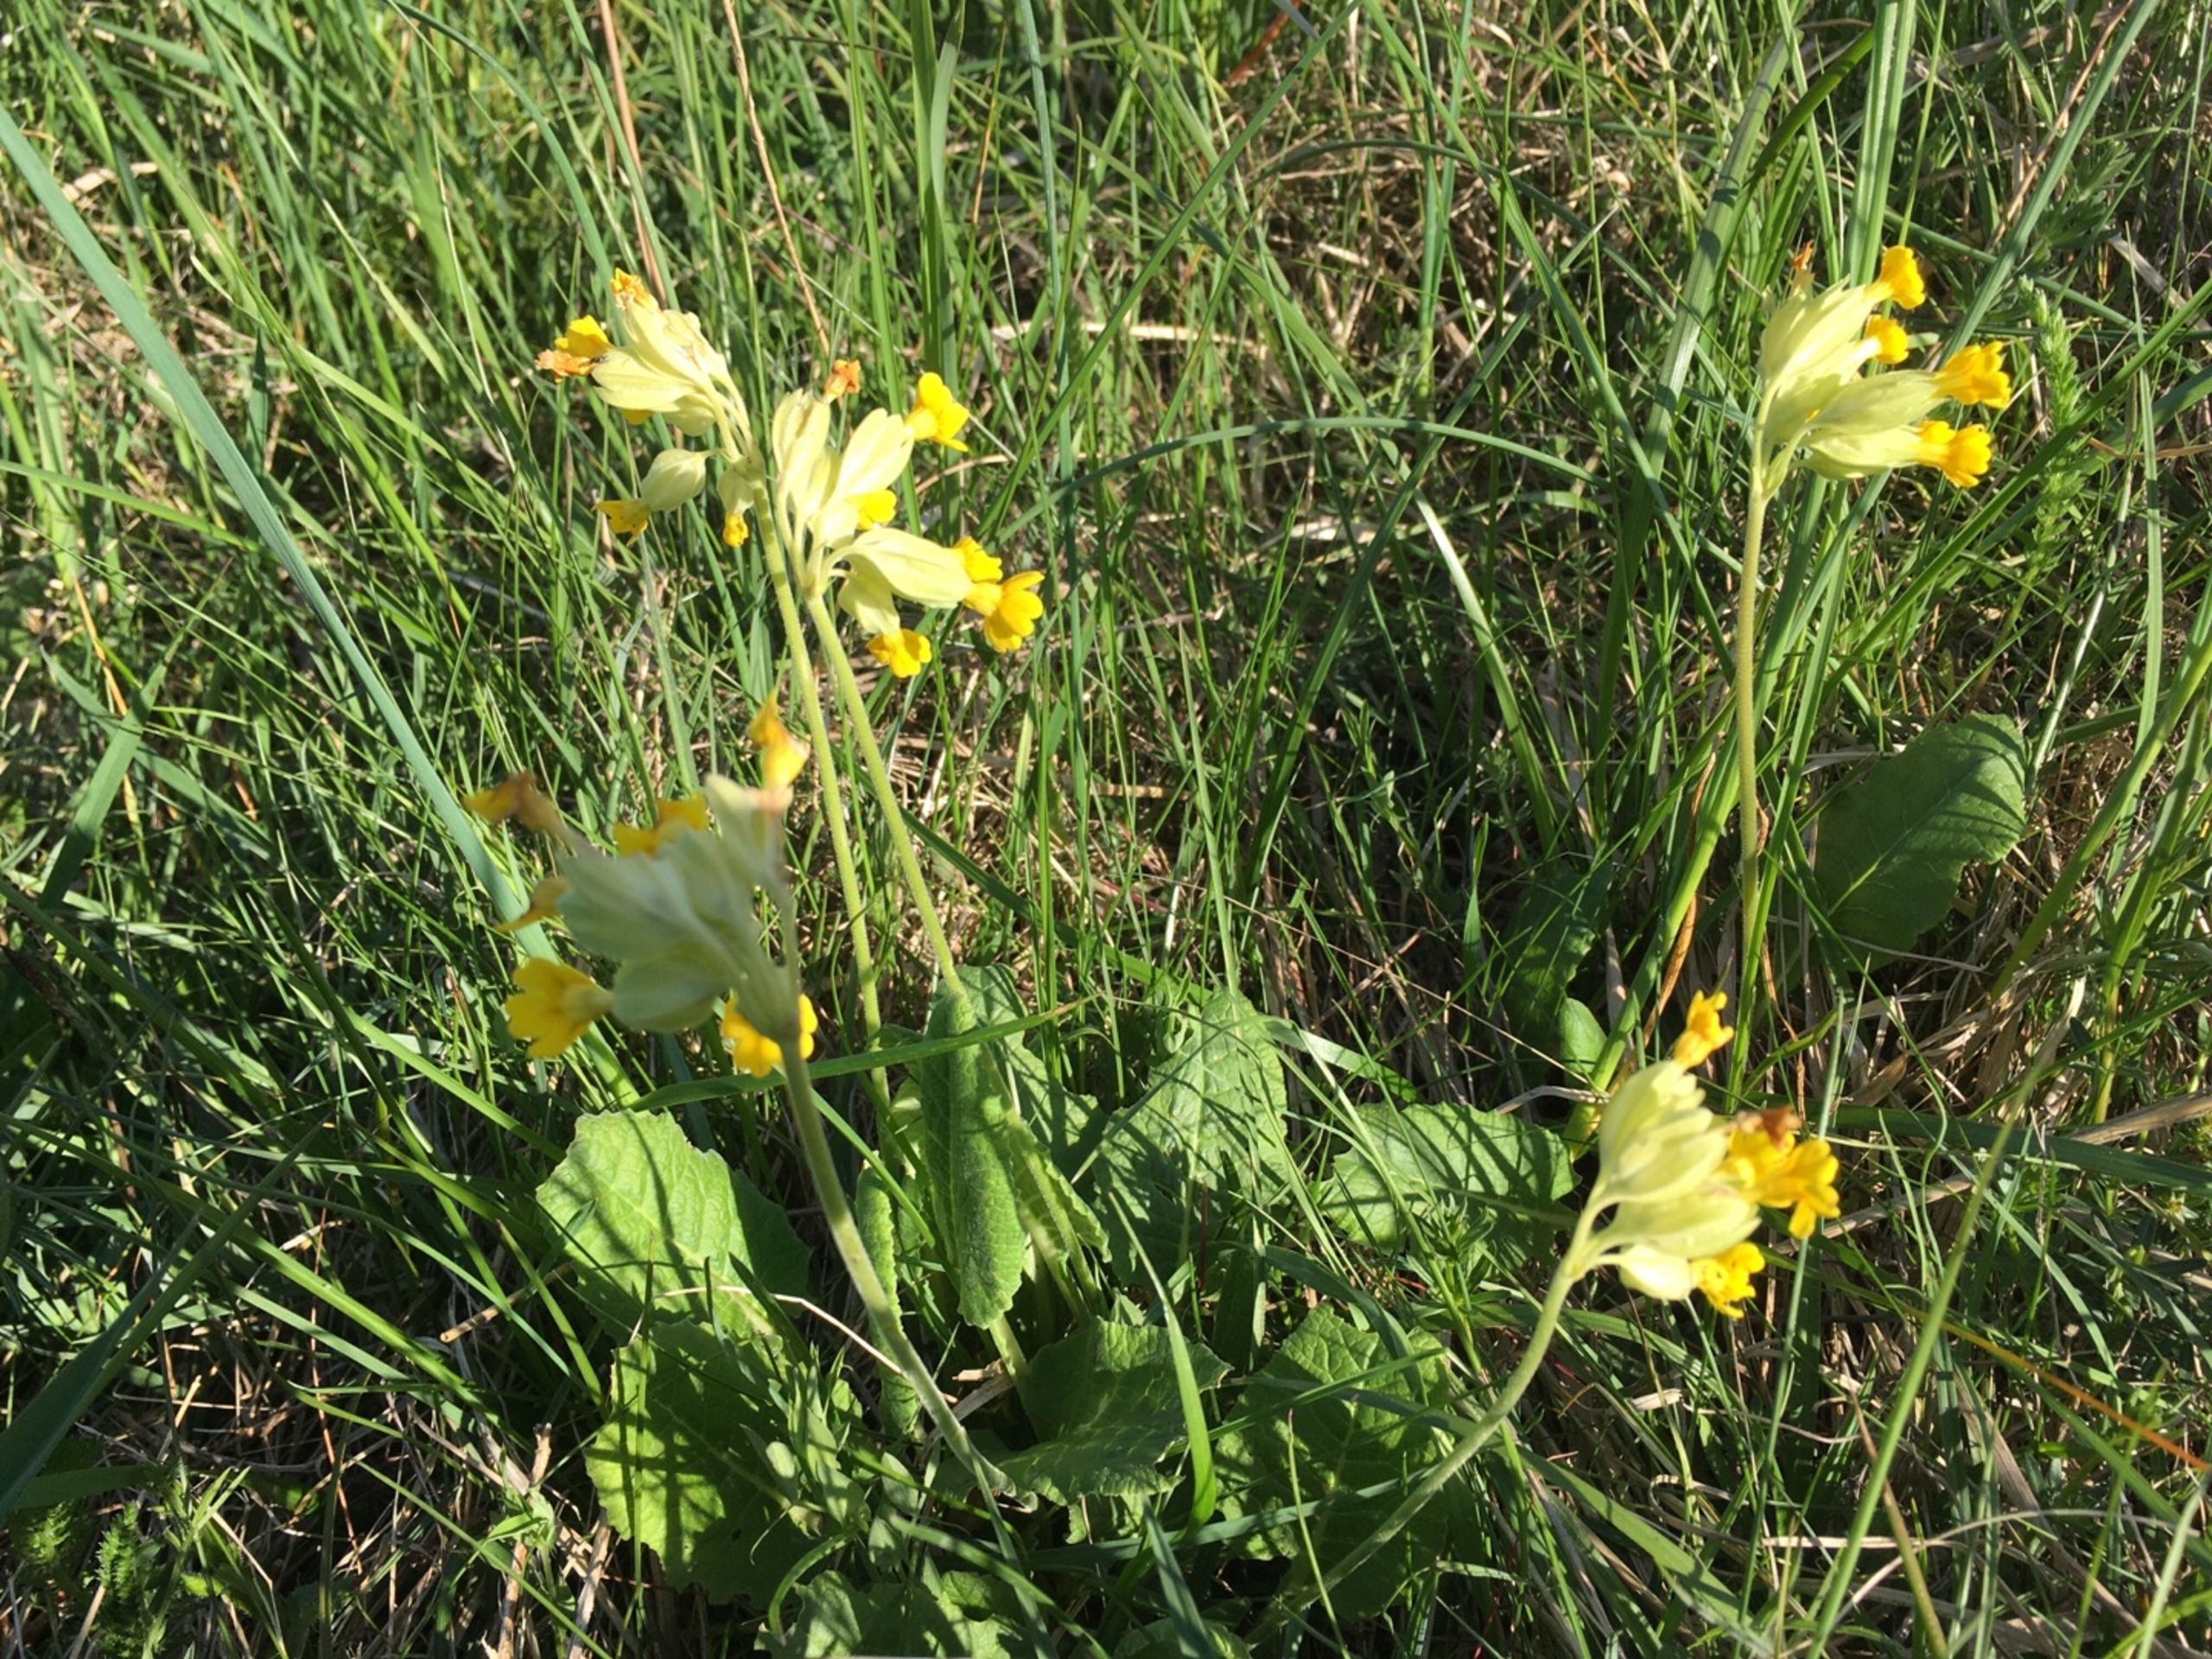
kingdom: Plantae
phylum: Tracheophyta
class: Magnoliopsida
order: Ericales
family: Primulaceae
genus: Primula
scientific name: Primula veris
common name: Hulkravet kodriver
